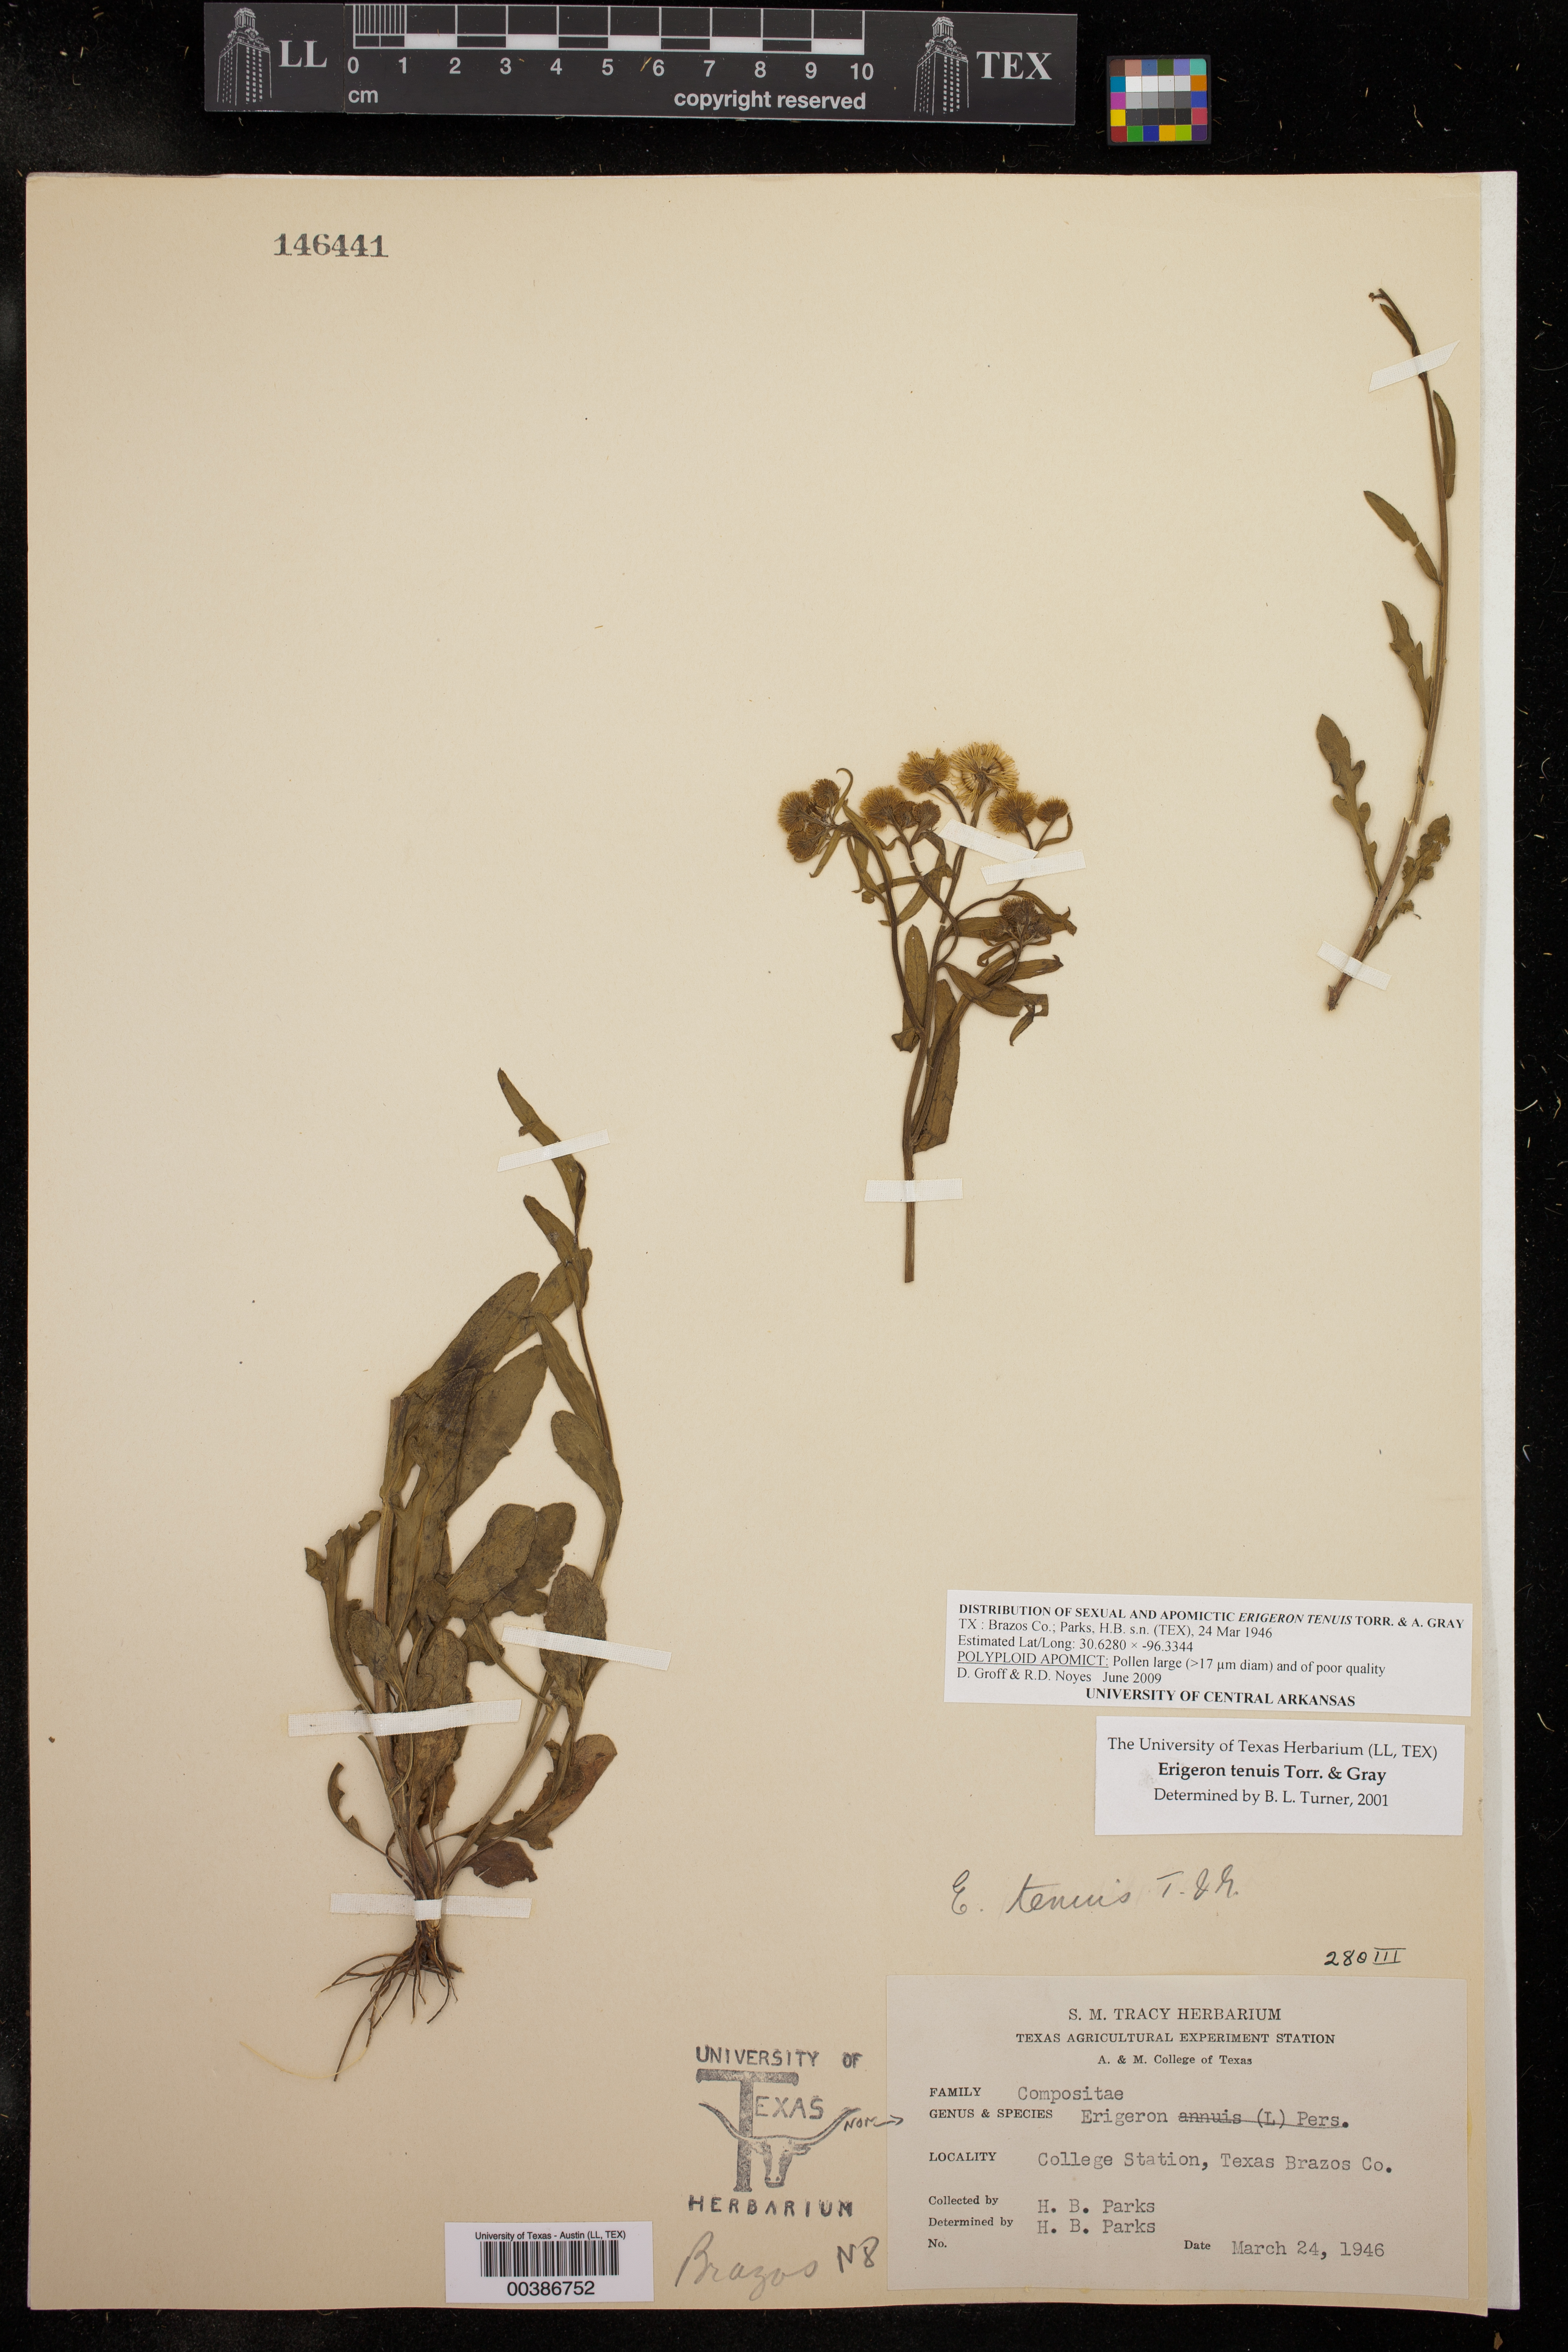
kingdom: Plantae
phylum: Tracheophyta
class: Magnoliopsida
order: Asterales
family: Asteraceae
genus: Erigeron
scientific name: Erigeron tenuis
